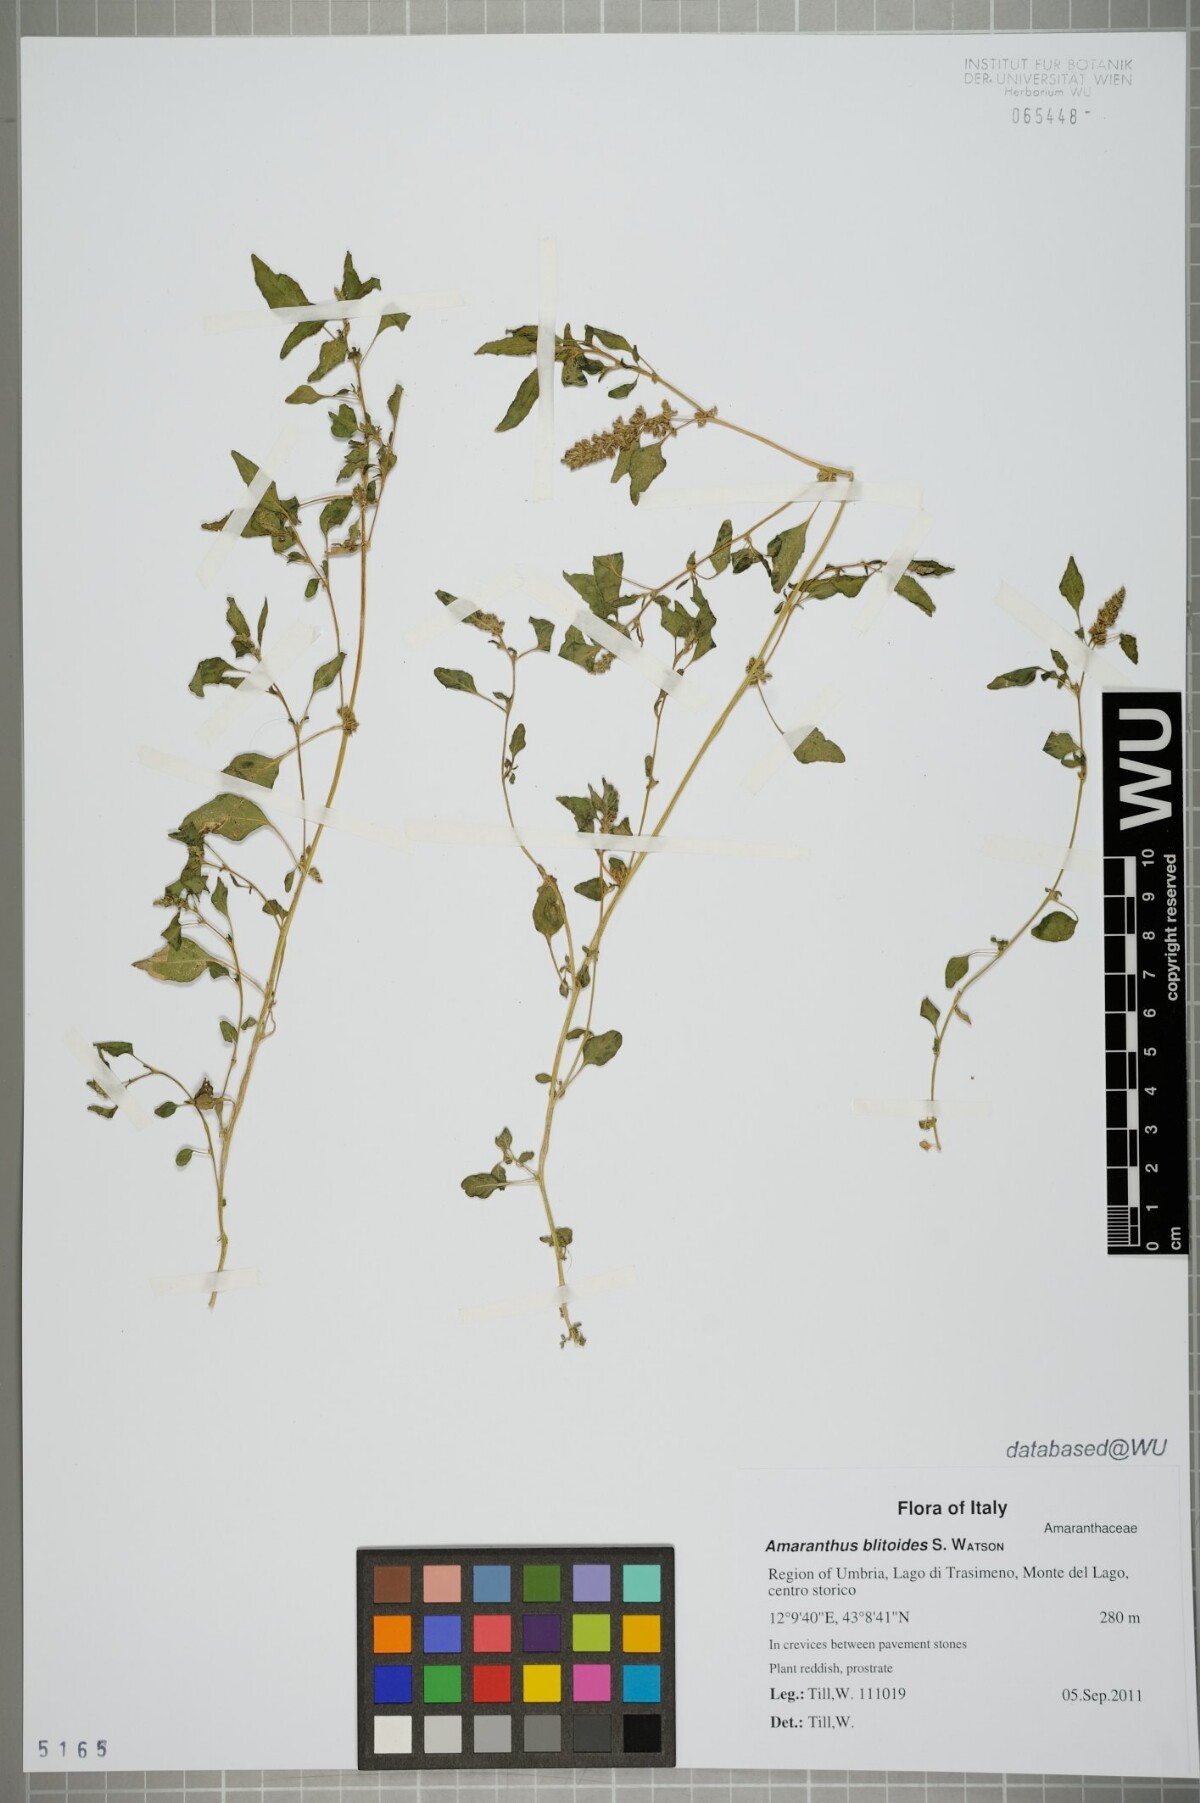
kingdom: Plantae
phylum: Tracheophyta
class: Magnoliopsida
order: Caryophyllales
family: Amaranthaceae
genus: Amaranthus
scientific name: Amaranthus blitoides
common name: Prostrate pigweed
